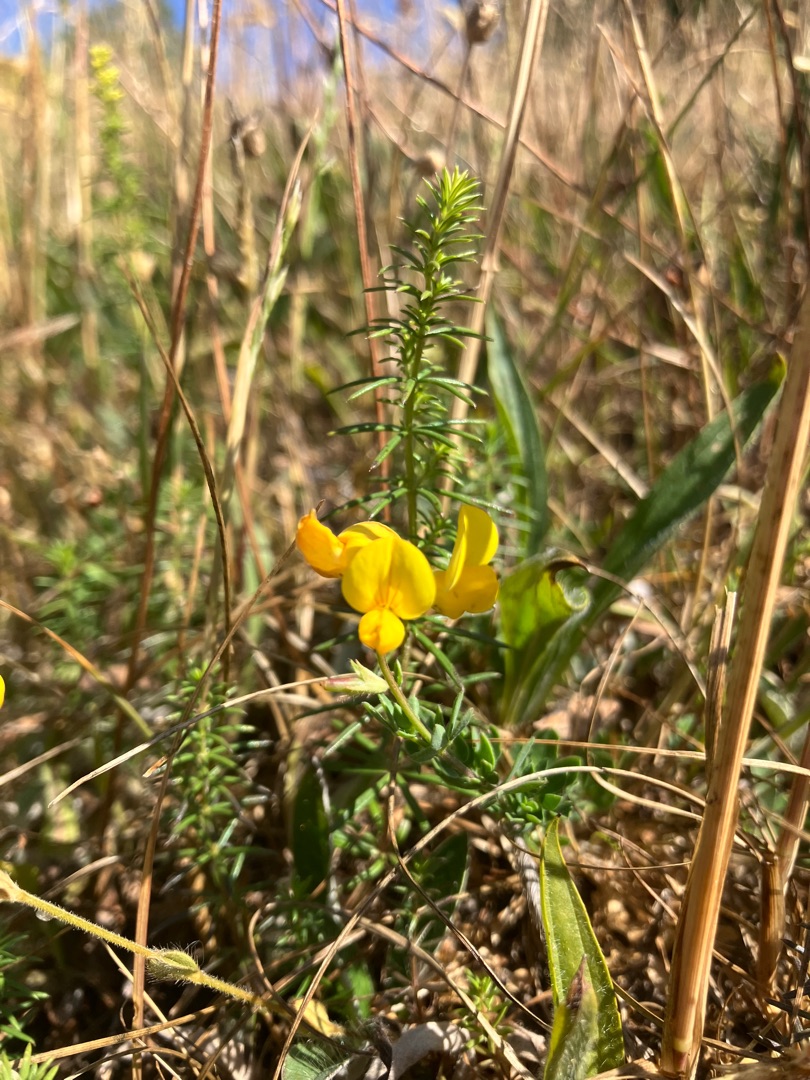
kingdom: Plantae
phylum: Tracheophyta
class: Magnoliopsida
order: Fabales
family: Fabaceae
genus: Lotus
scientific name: Lotus corniculatus
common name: Almindelig kællingetand
